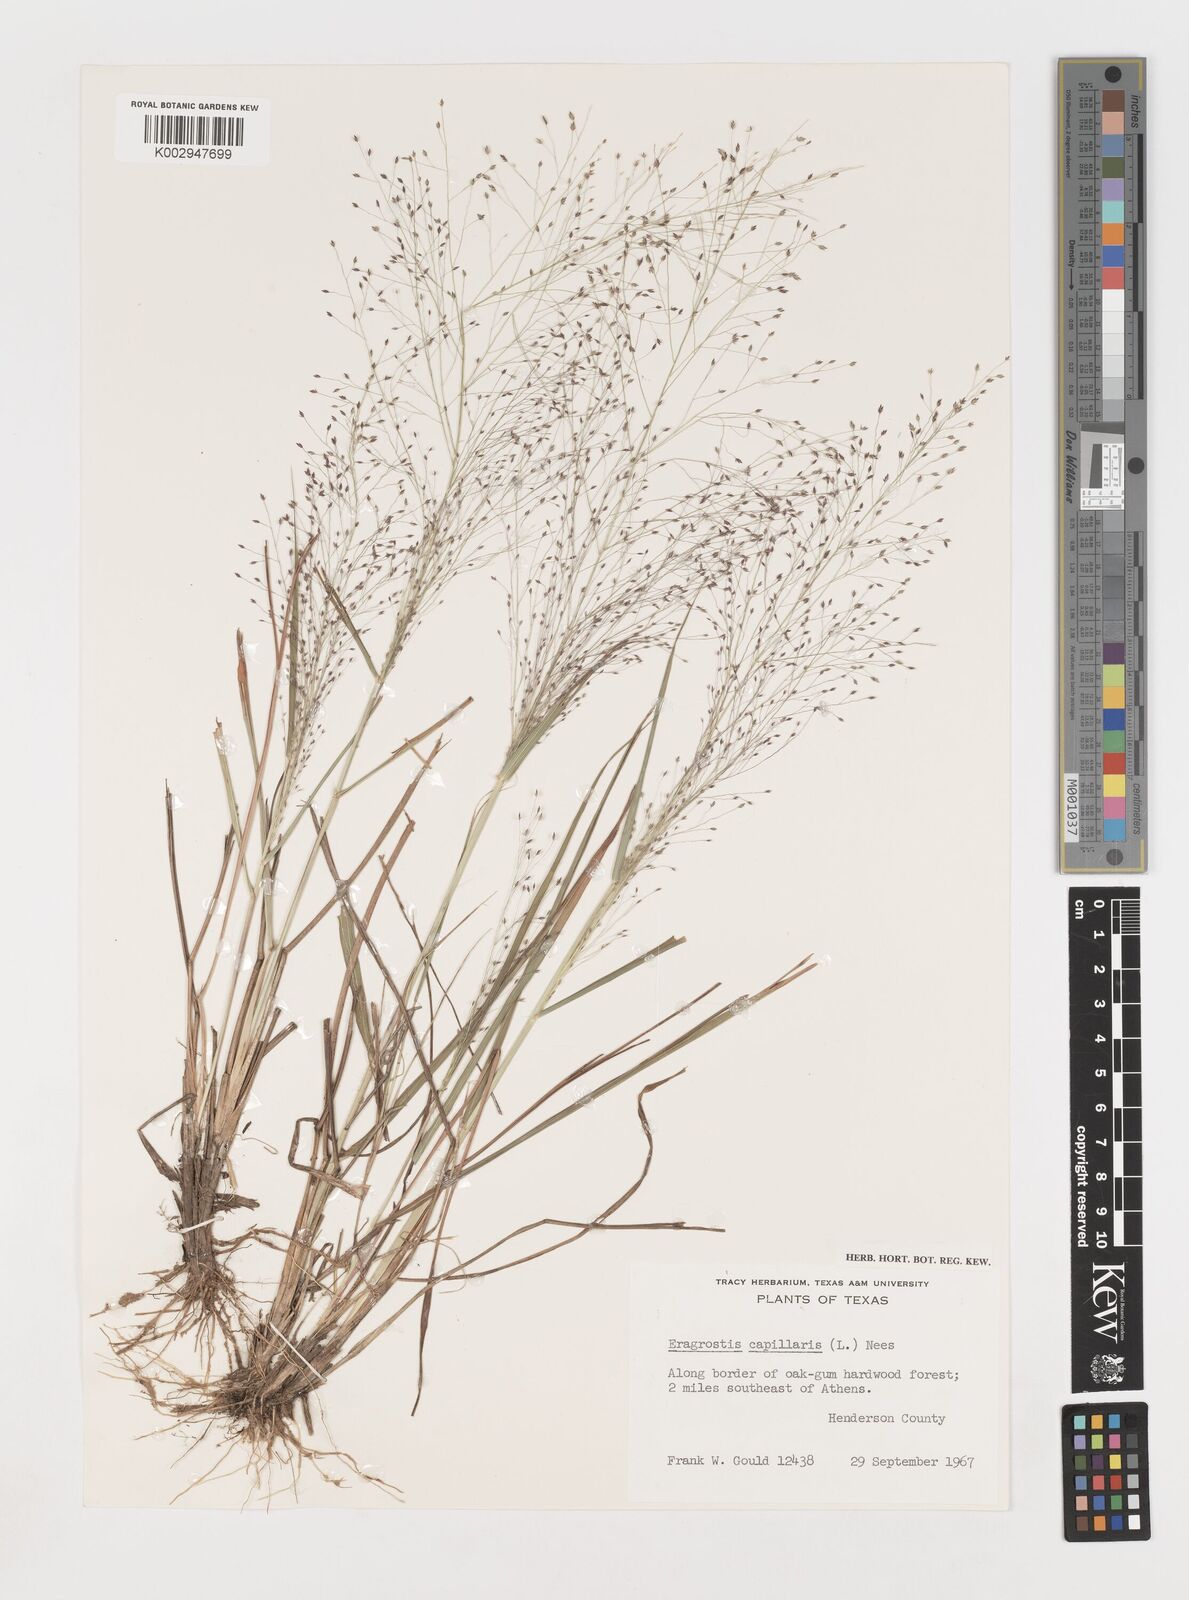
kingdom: Plantae
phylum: Tracheophyta
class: Liliopsida
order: Poales
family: Poaceae
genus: Eragrostis
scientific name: Eragrostis capillaris
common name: Hair-like lovegrass
